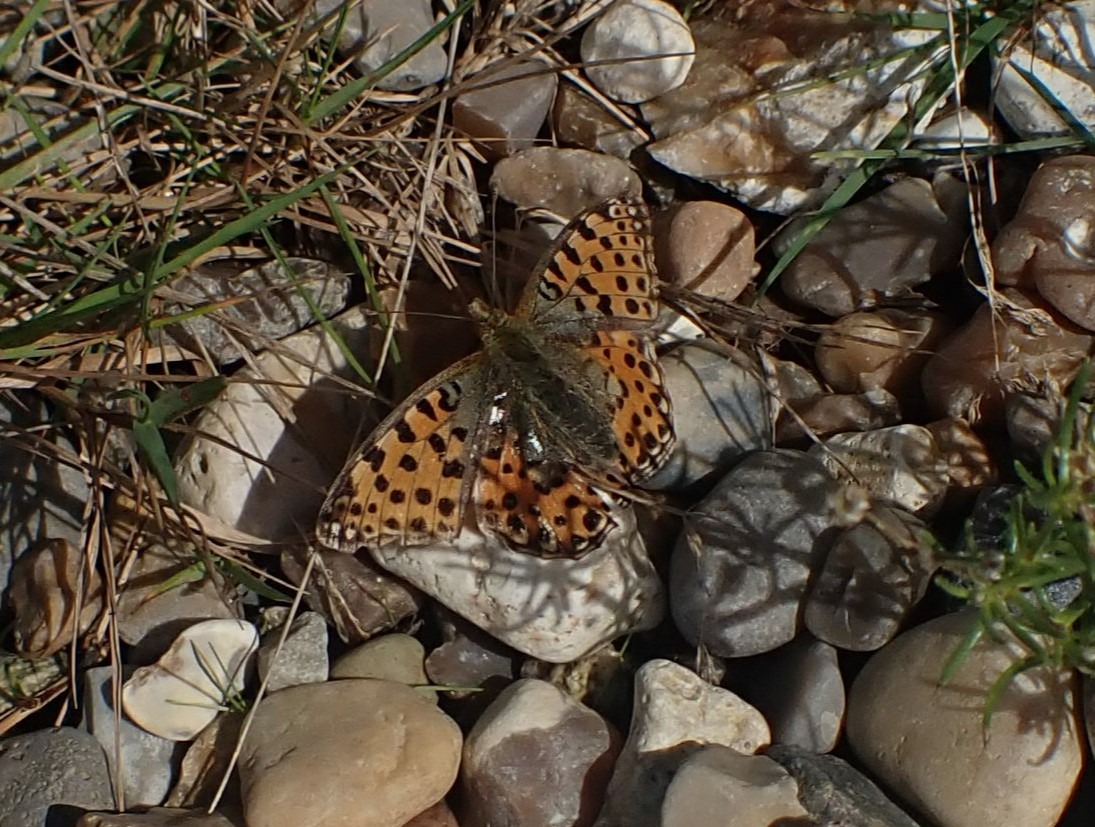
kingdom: Animalia
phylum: Arthropoda
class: Insecta
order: Lepidoptera
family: Nymphalidae
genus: Issoria
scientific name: Issoria lathonia
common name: Storplettet perlemorsommerfugl
